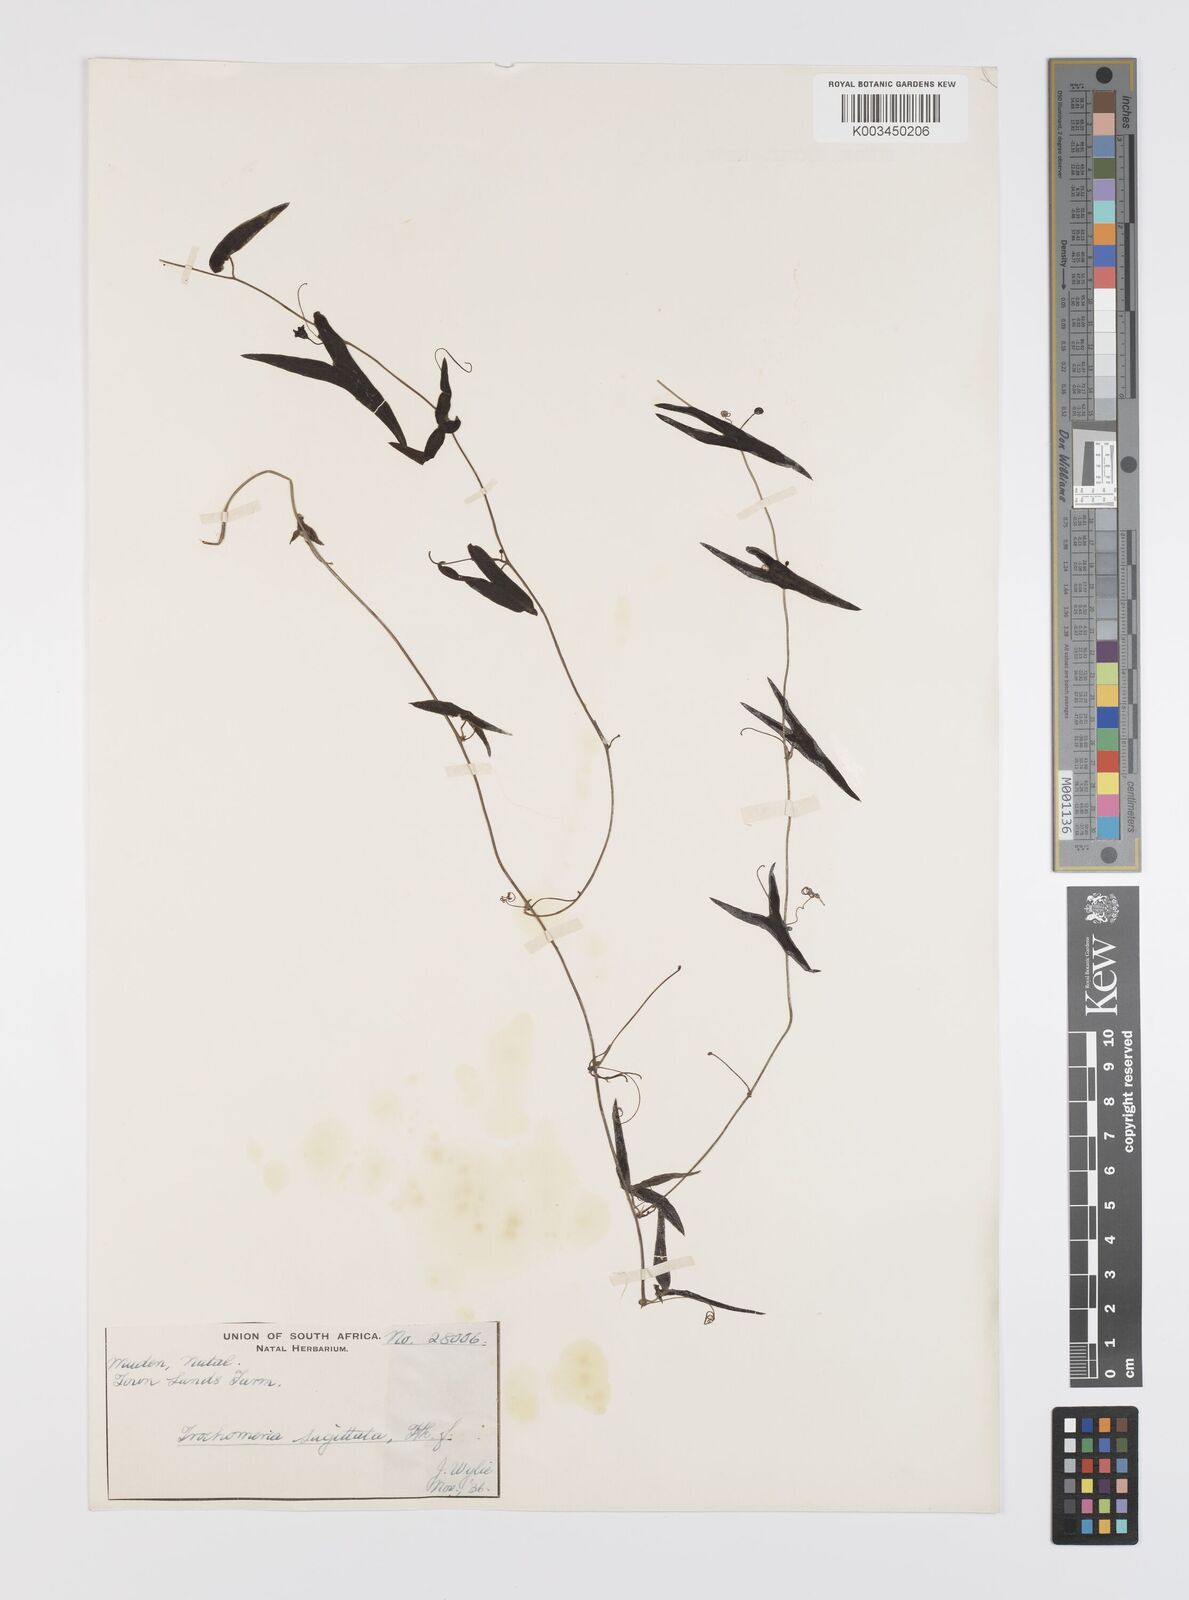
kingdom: Plantae
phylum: Tracheophyta
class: Magnoliopsida
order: Cucurbitales
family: Cucurbitaceae
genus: Trochomeria
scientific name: Trochomeria sagittata
